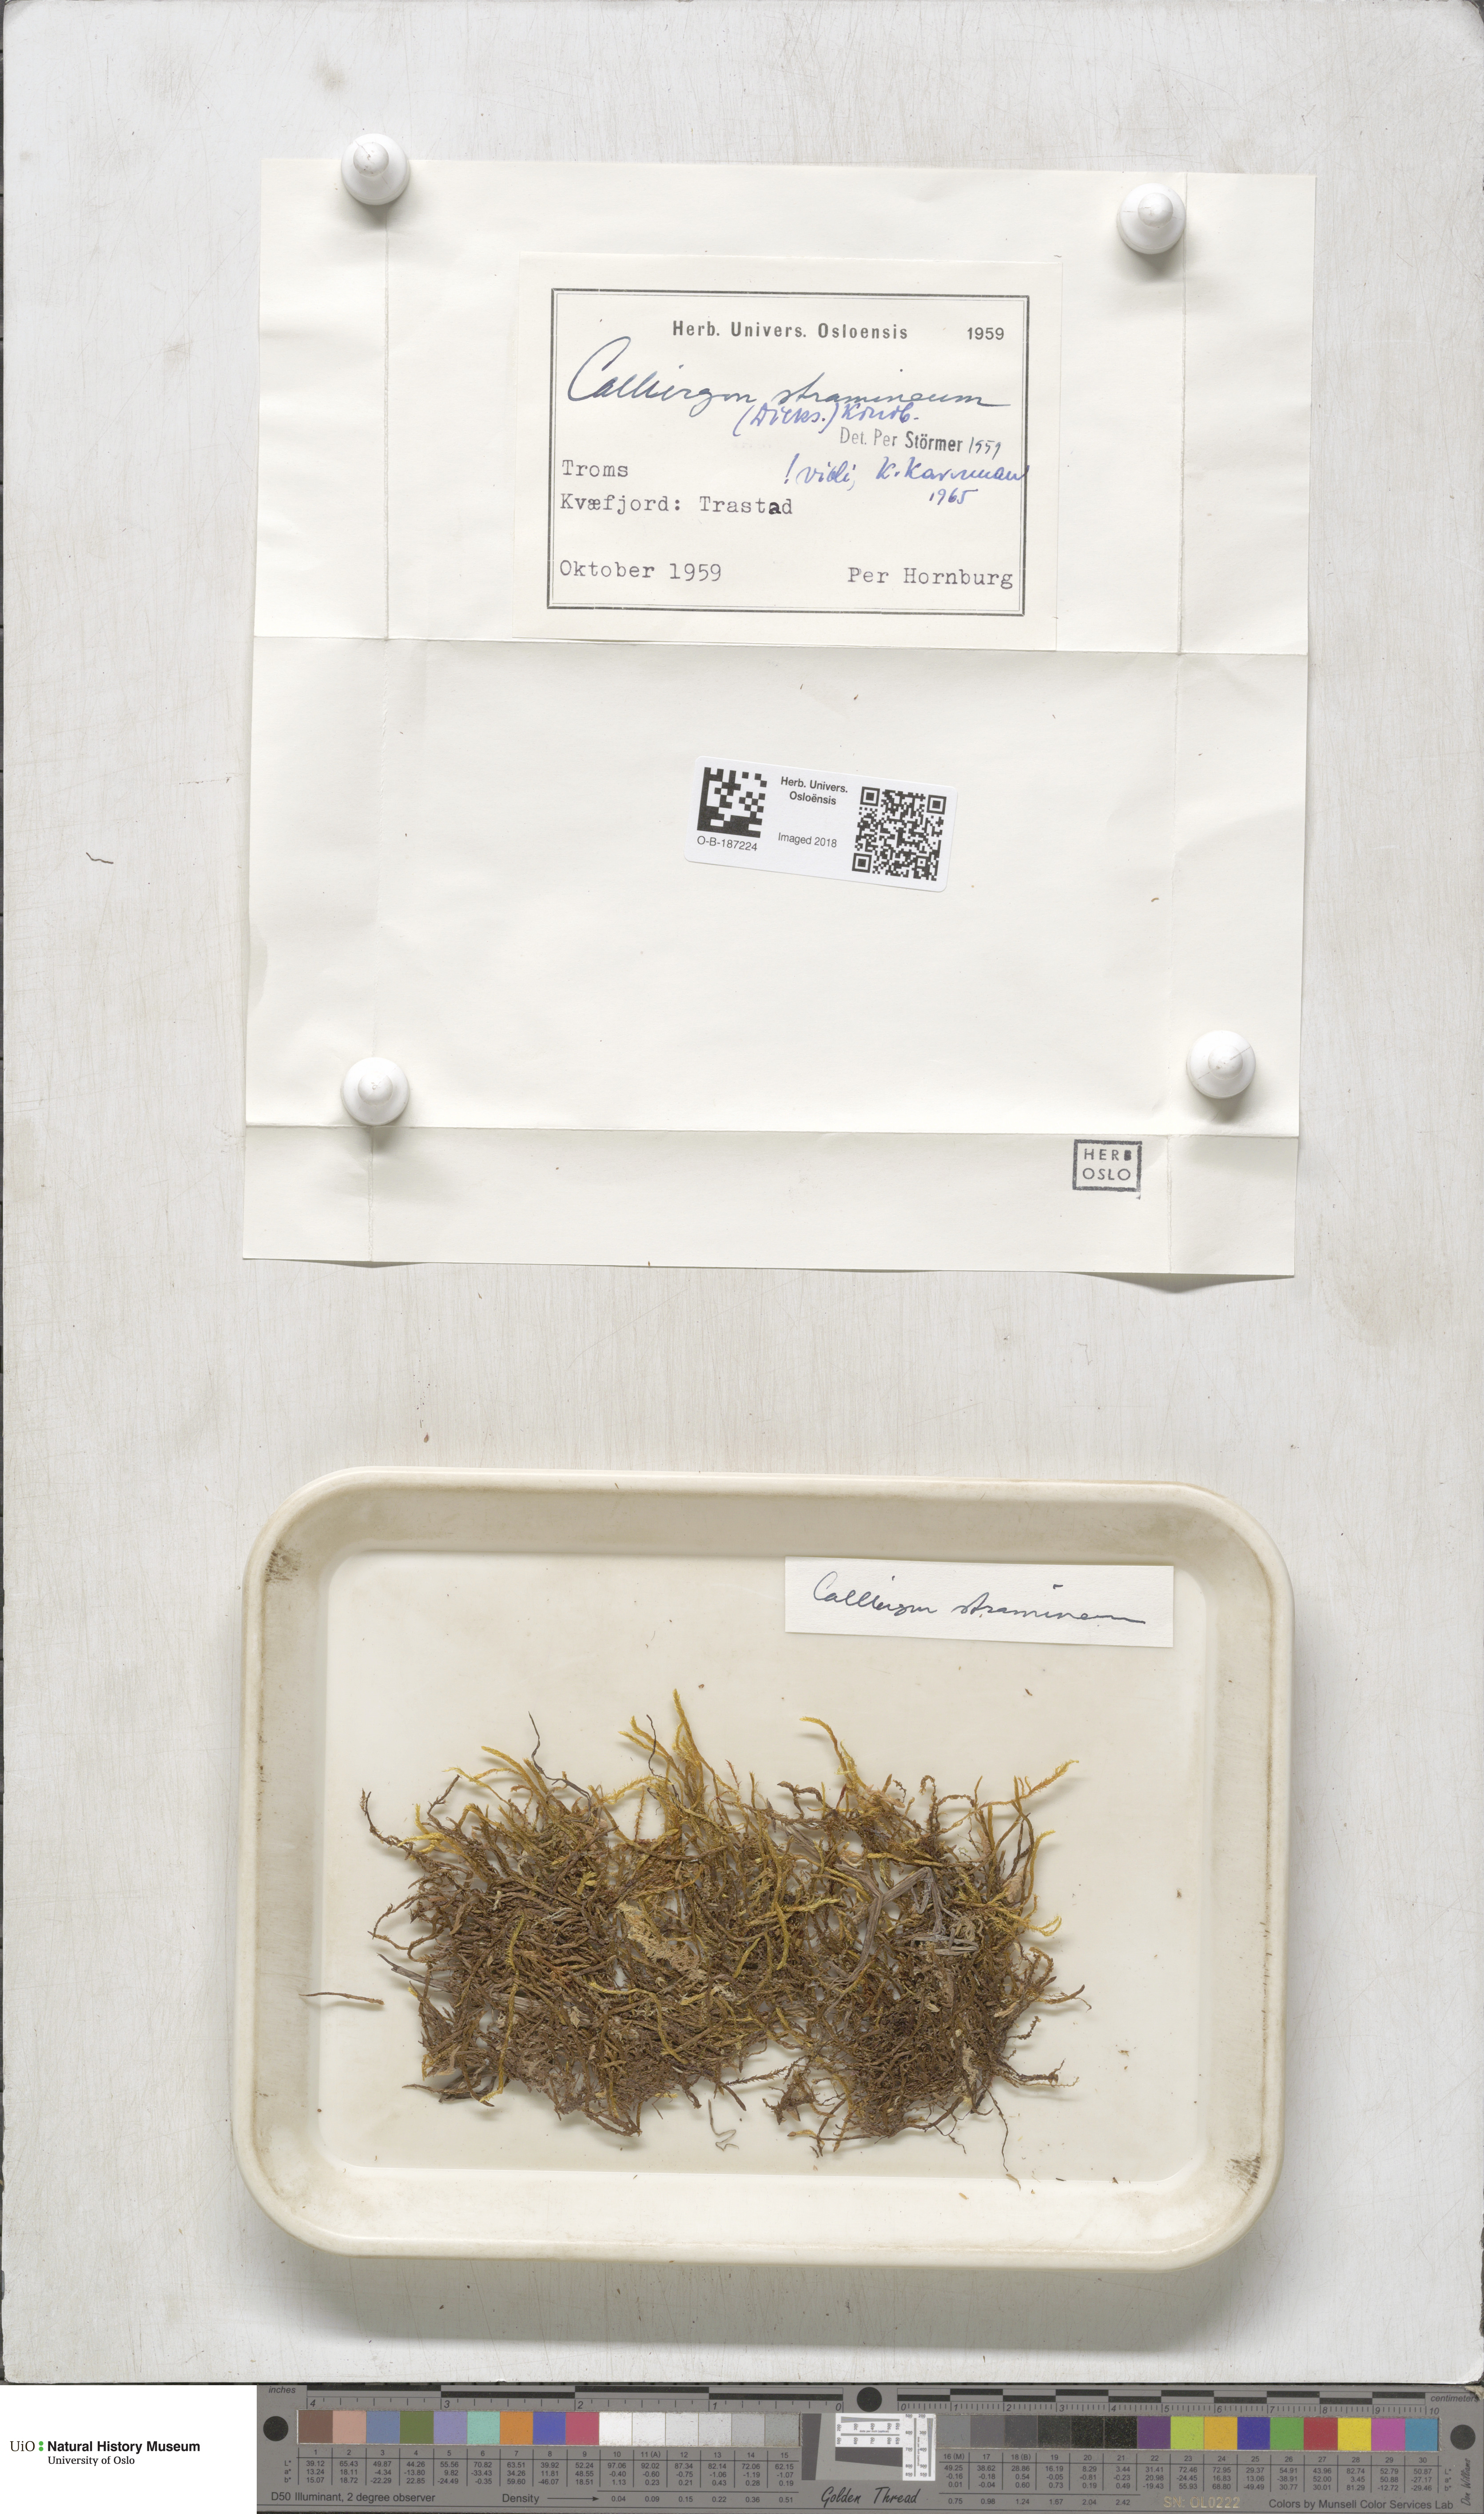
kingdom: Plantae
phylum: Bryophyta
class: Bryopsida
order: Hypnales
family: Calliergonaceae
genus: Straminergon
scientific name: Straminergon stramineum
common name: Straw moss
